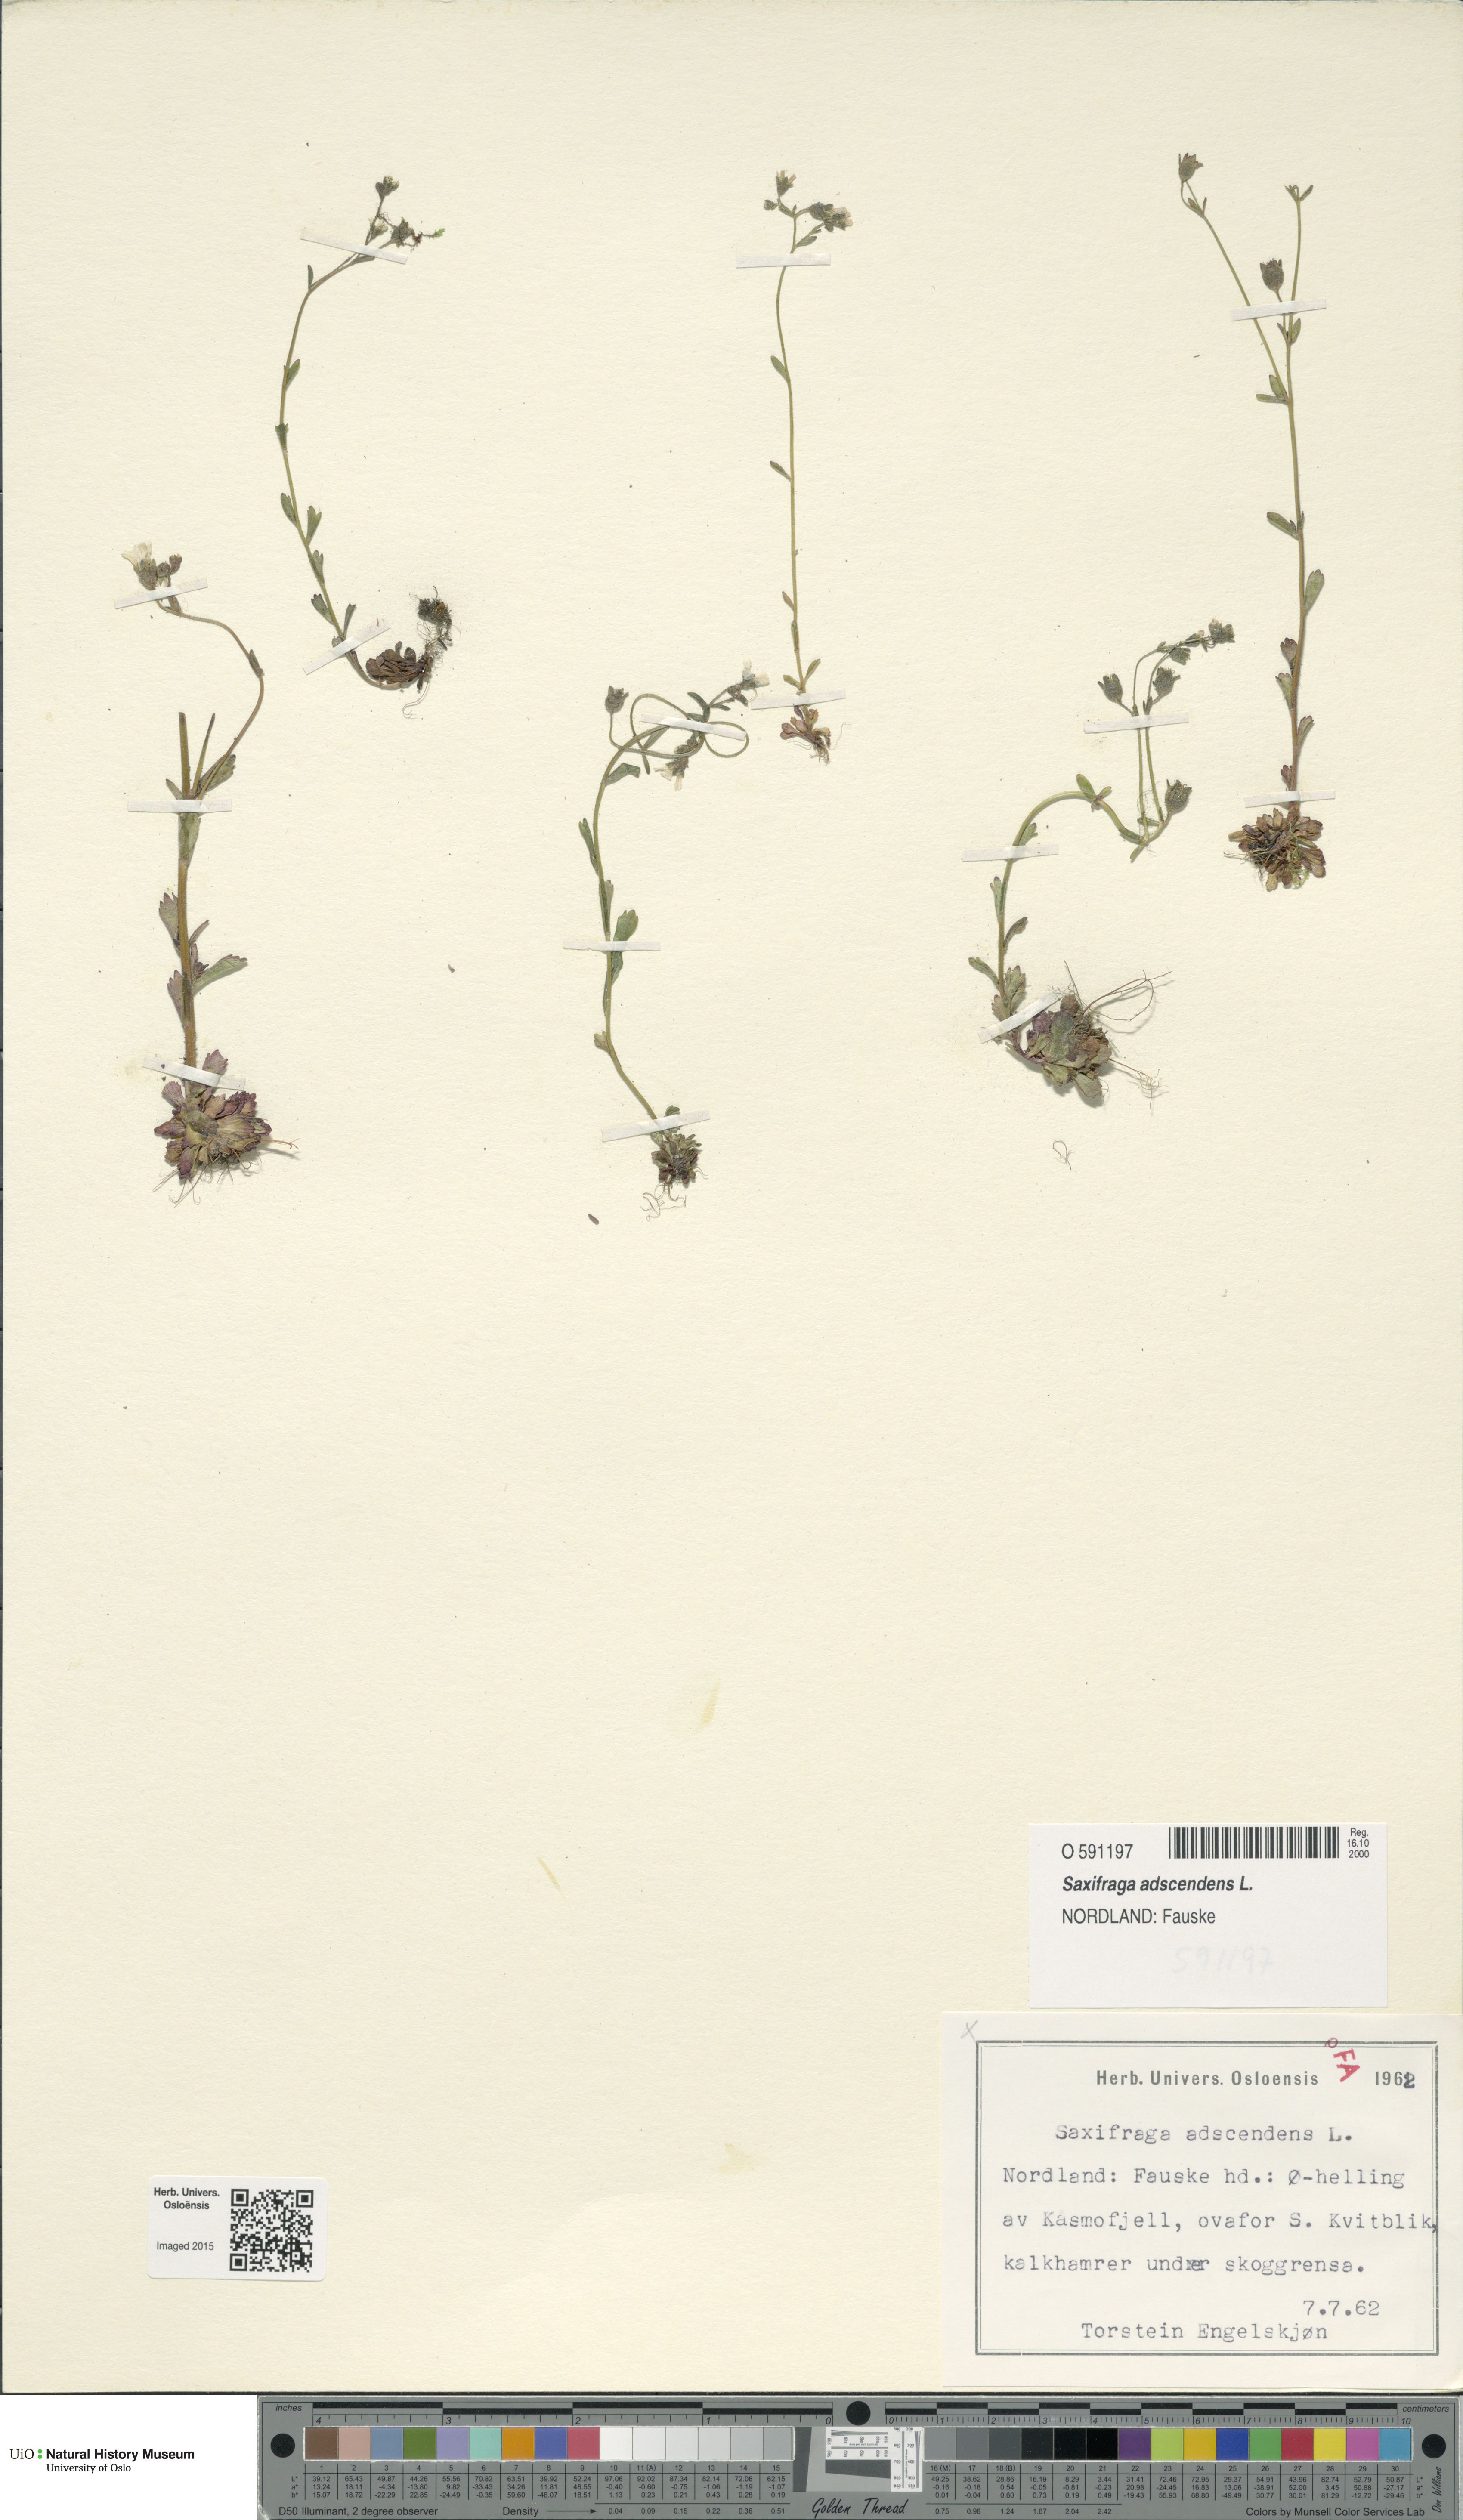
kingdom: Plantae
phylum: Tracheophyta
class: Magnoliopsida
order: Saxifragales
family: Saxifragaceae
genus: Saxifraga
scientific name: Saxifraga adscendens
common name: Ascending saxifrage
